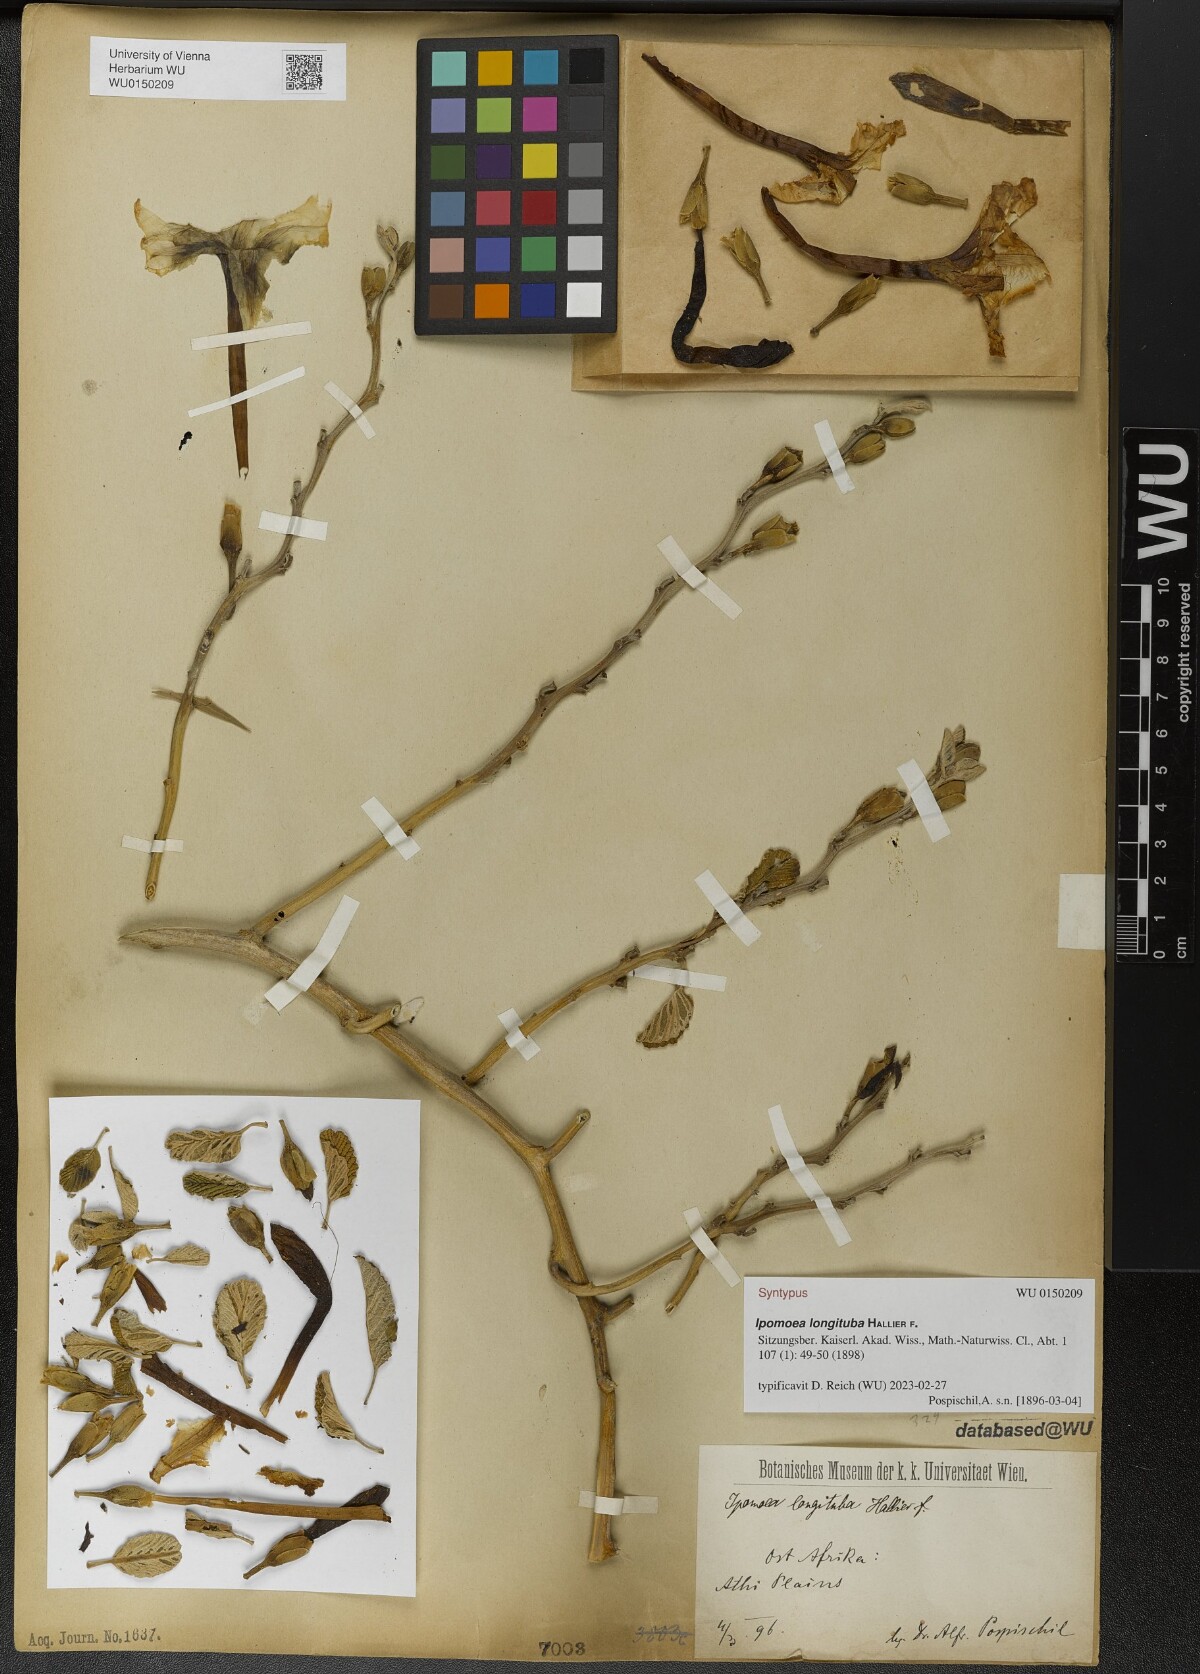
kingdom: Plantae
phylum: Tracheophyta
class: Magnoliopsida
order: Solanales
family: Convolvulaceae
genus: Ipomoea
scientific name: Ipomoea longituba
